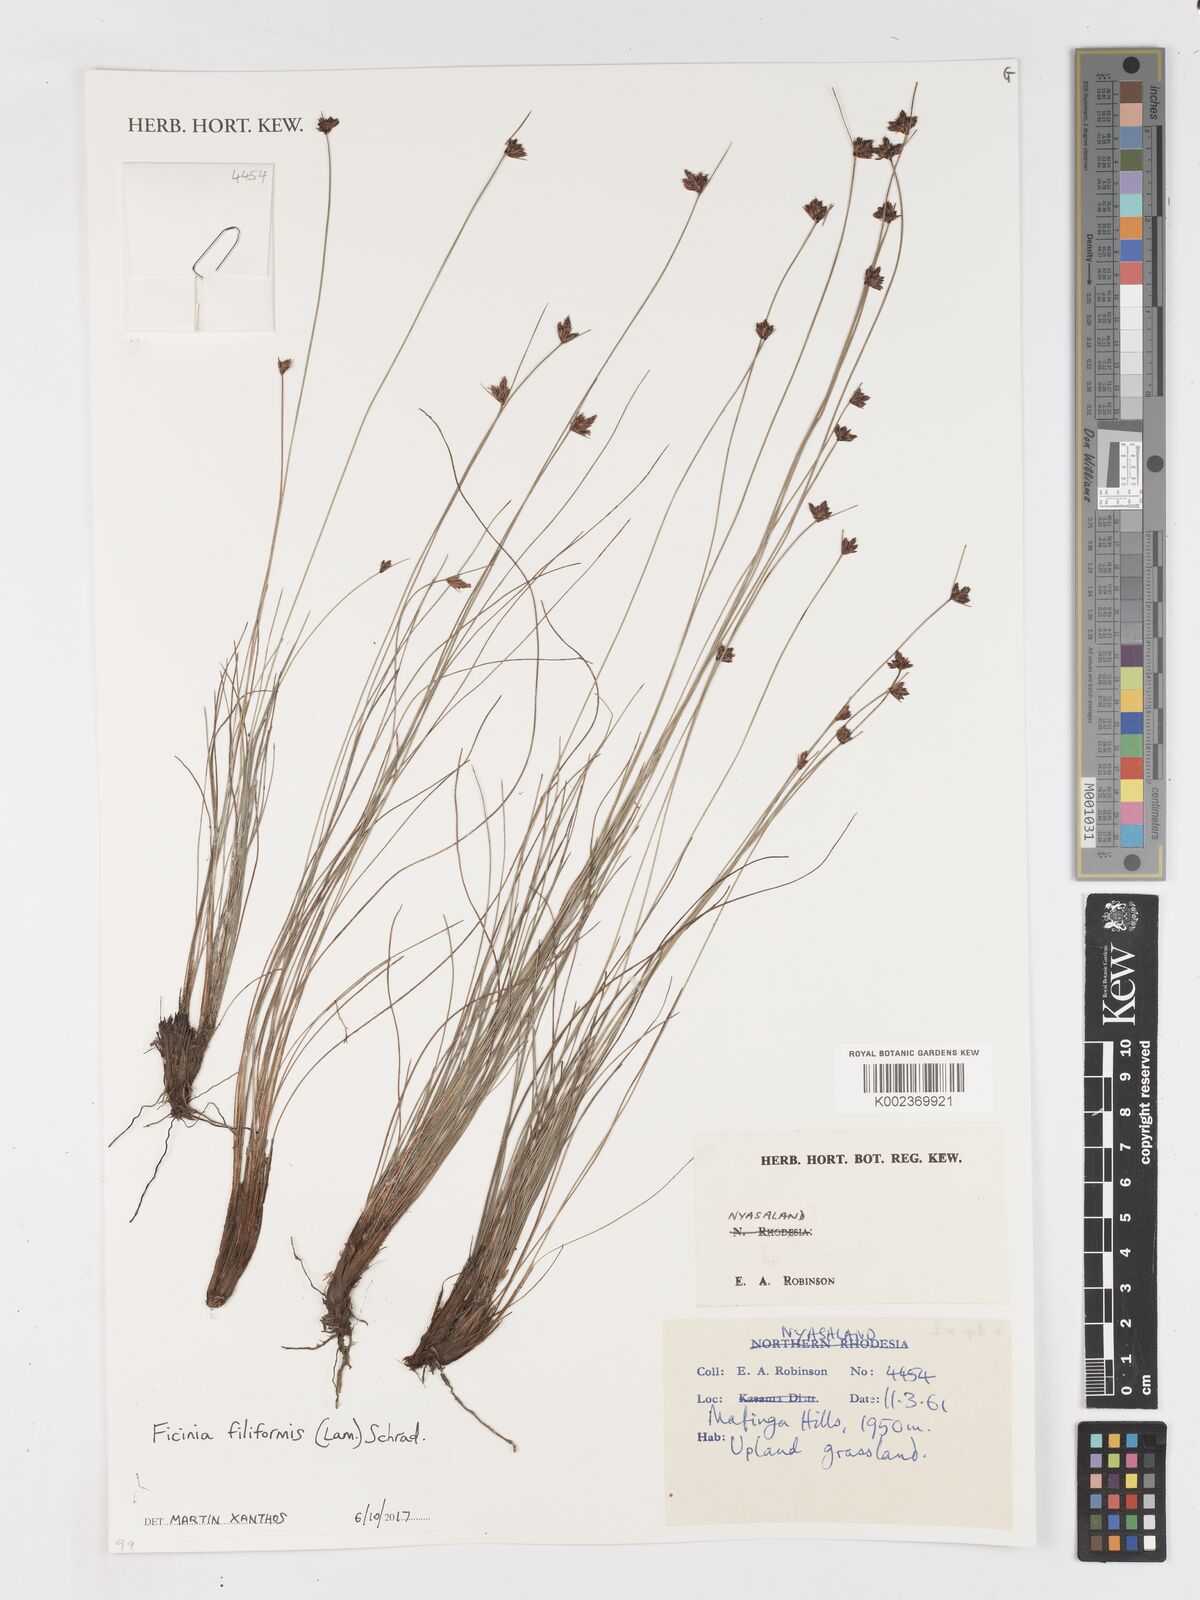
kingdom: Plantae
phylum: Tracheophyta
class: Liliopsida
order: Poales
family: Cyperaceae
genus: Ficinia
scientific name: Ficinia filiformis
